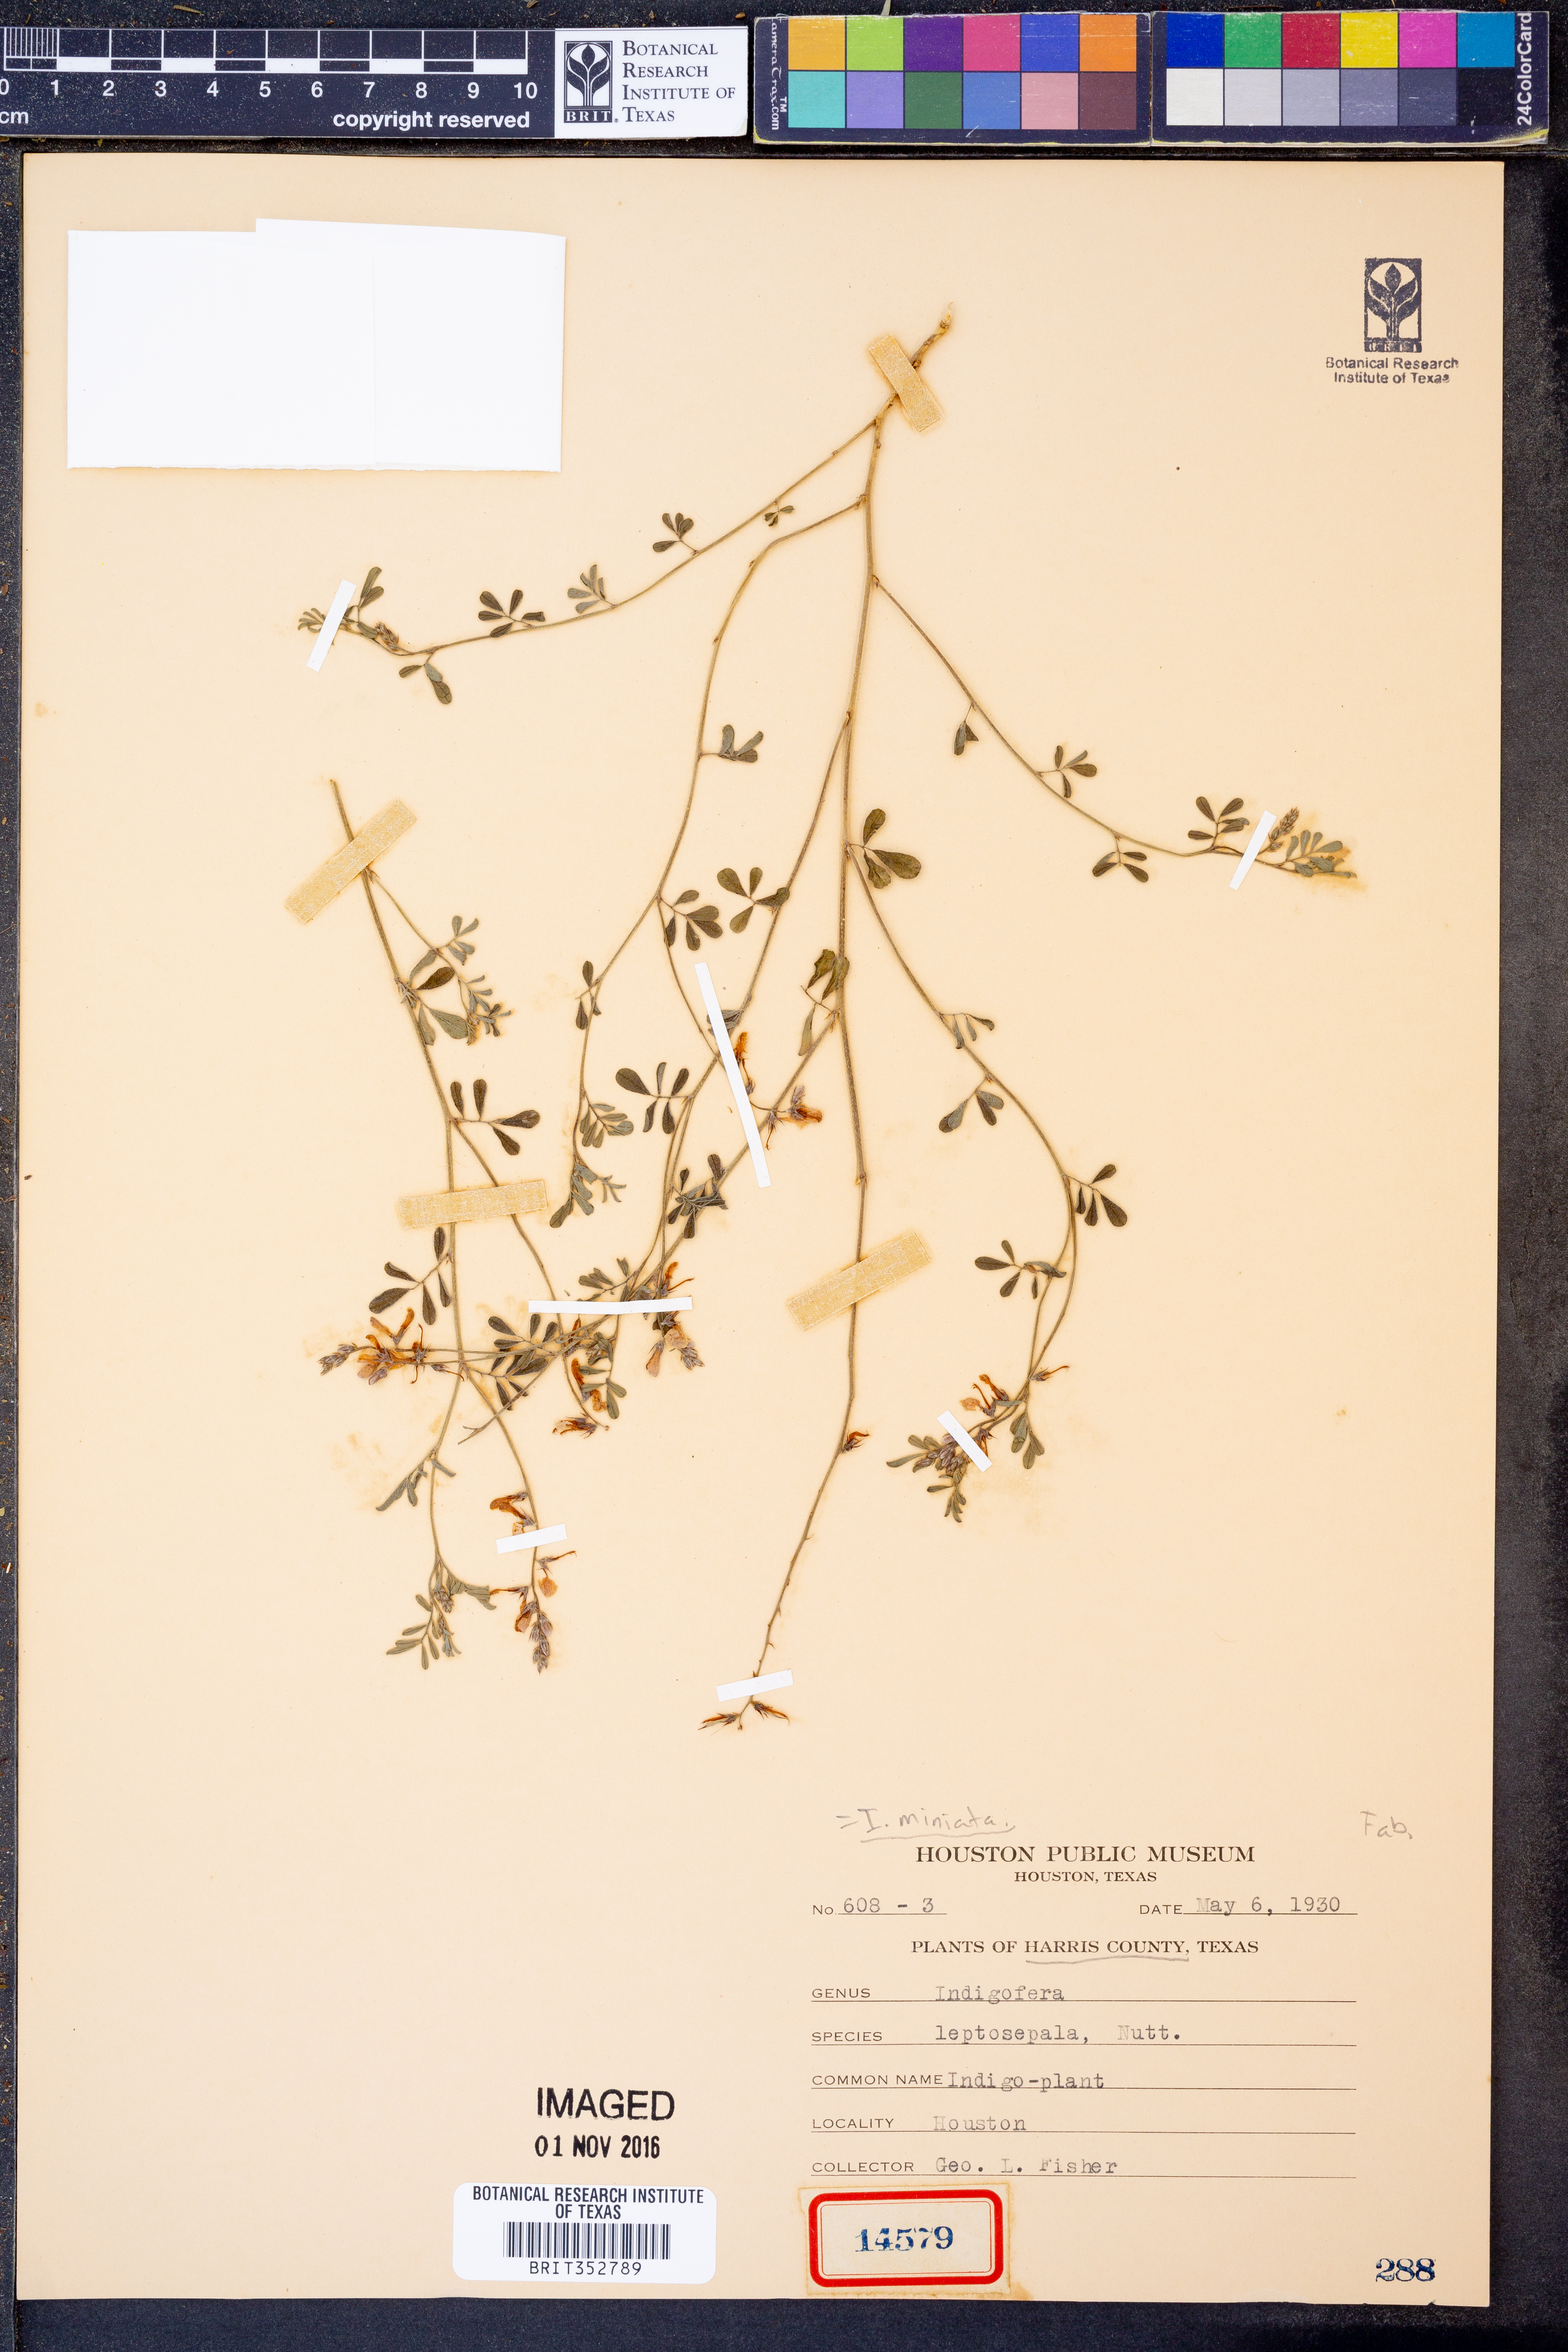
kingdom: Plantae
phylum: Tracheophyta
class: Magnoliopsida
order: Fabales
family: Fabaceae
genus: Indigofera
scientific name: Indigofera argutidens
